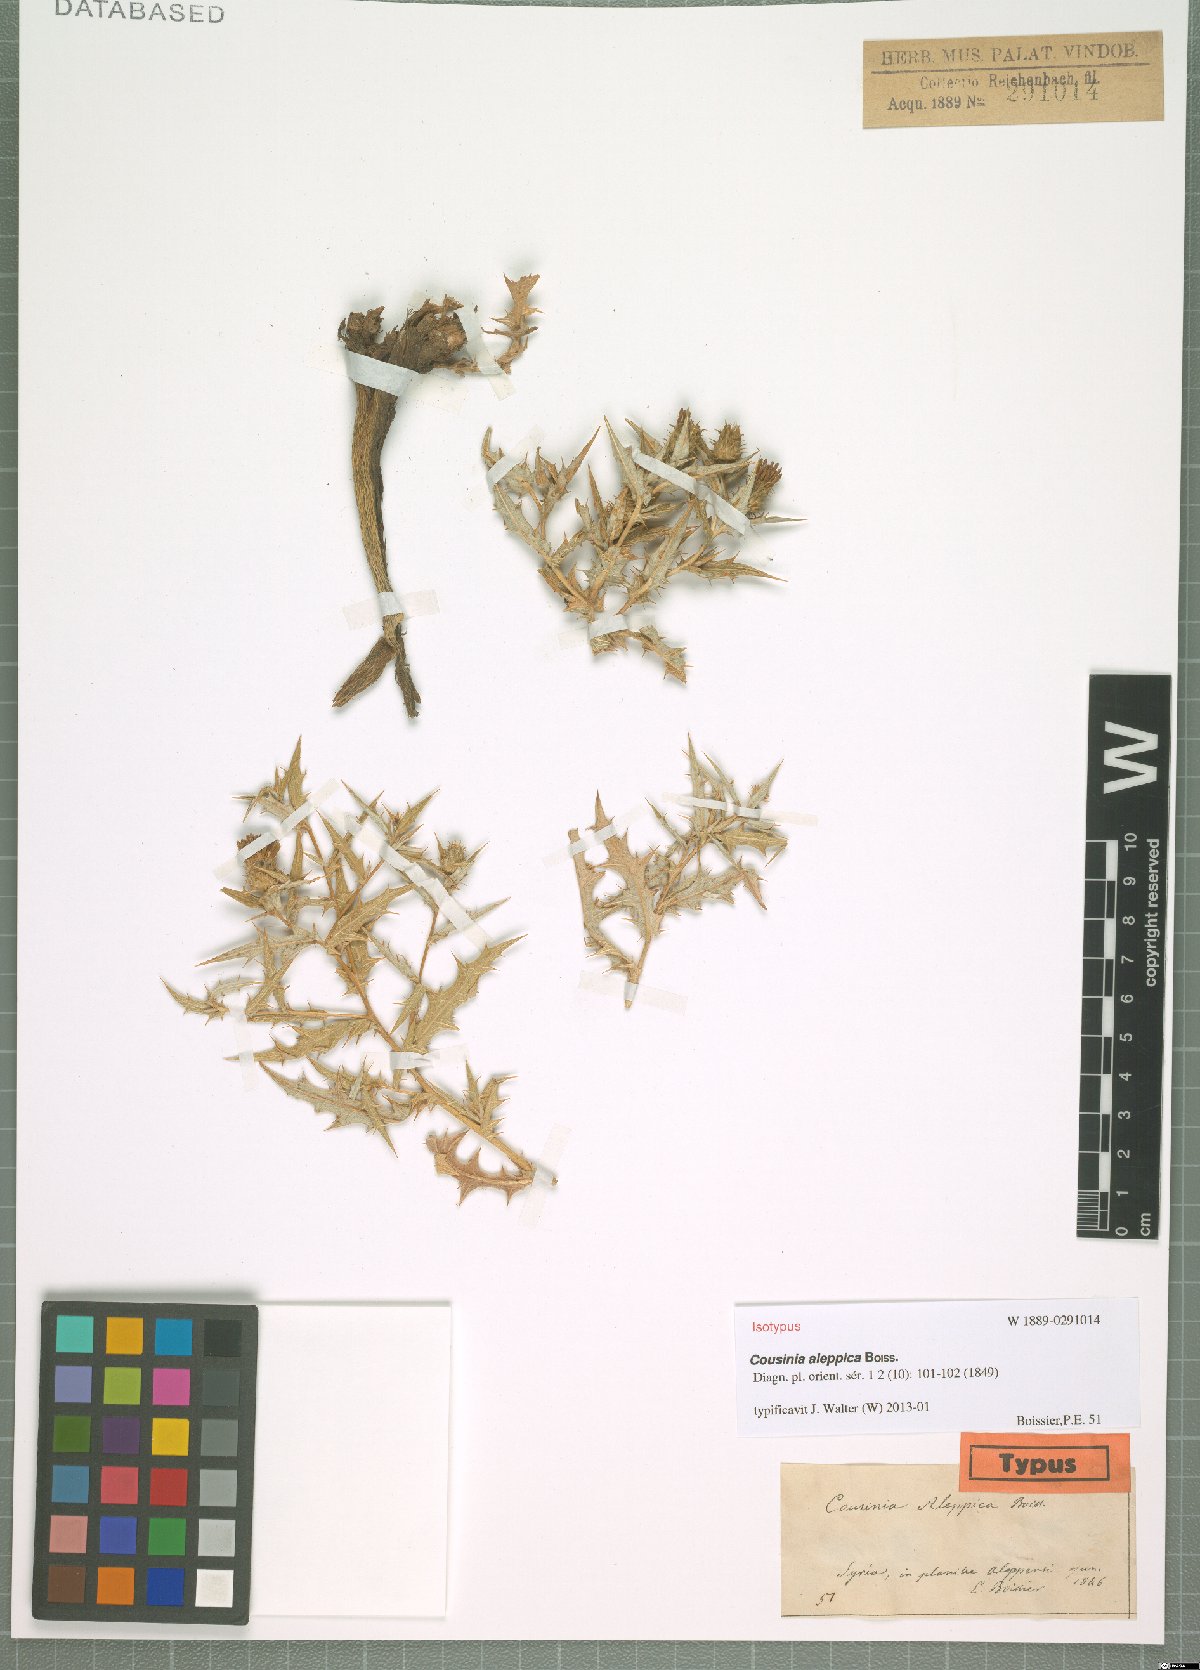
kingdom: Plantae
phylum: Tracheophyta
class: Magnoliopsida
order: Asterales
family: Asteraceae
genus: Cousinia
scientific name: Cousinia aleppica
